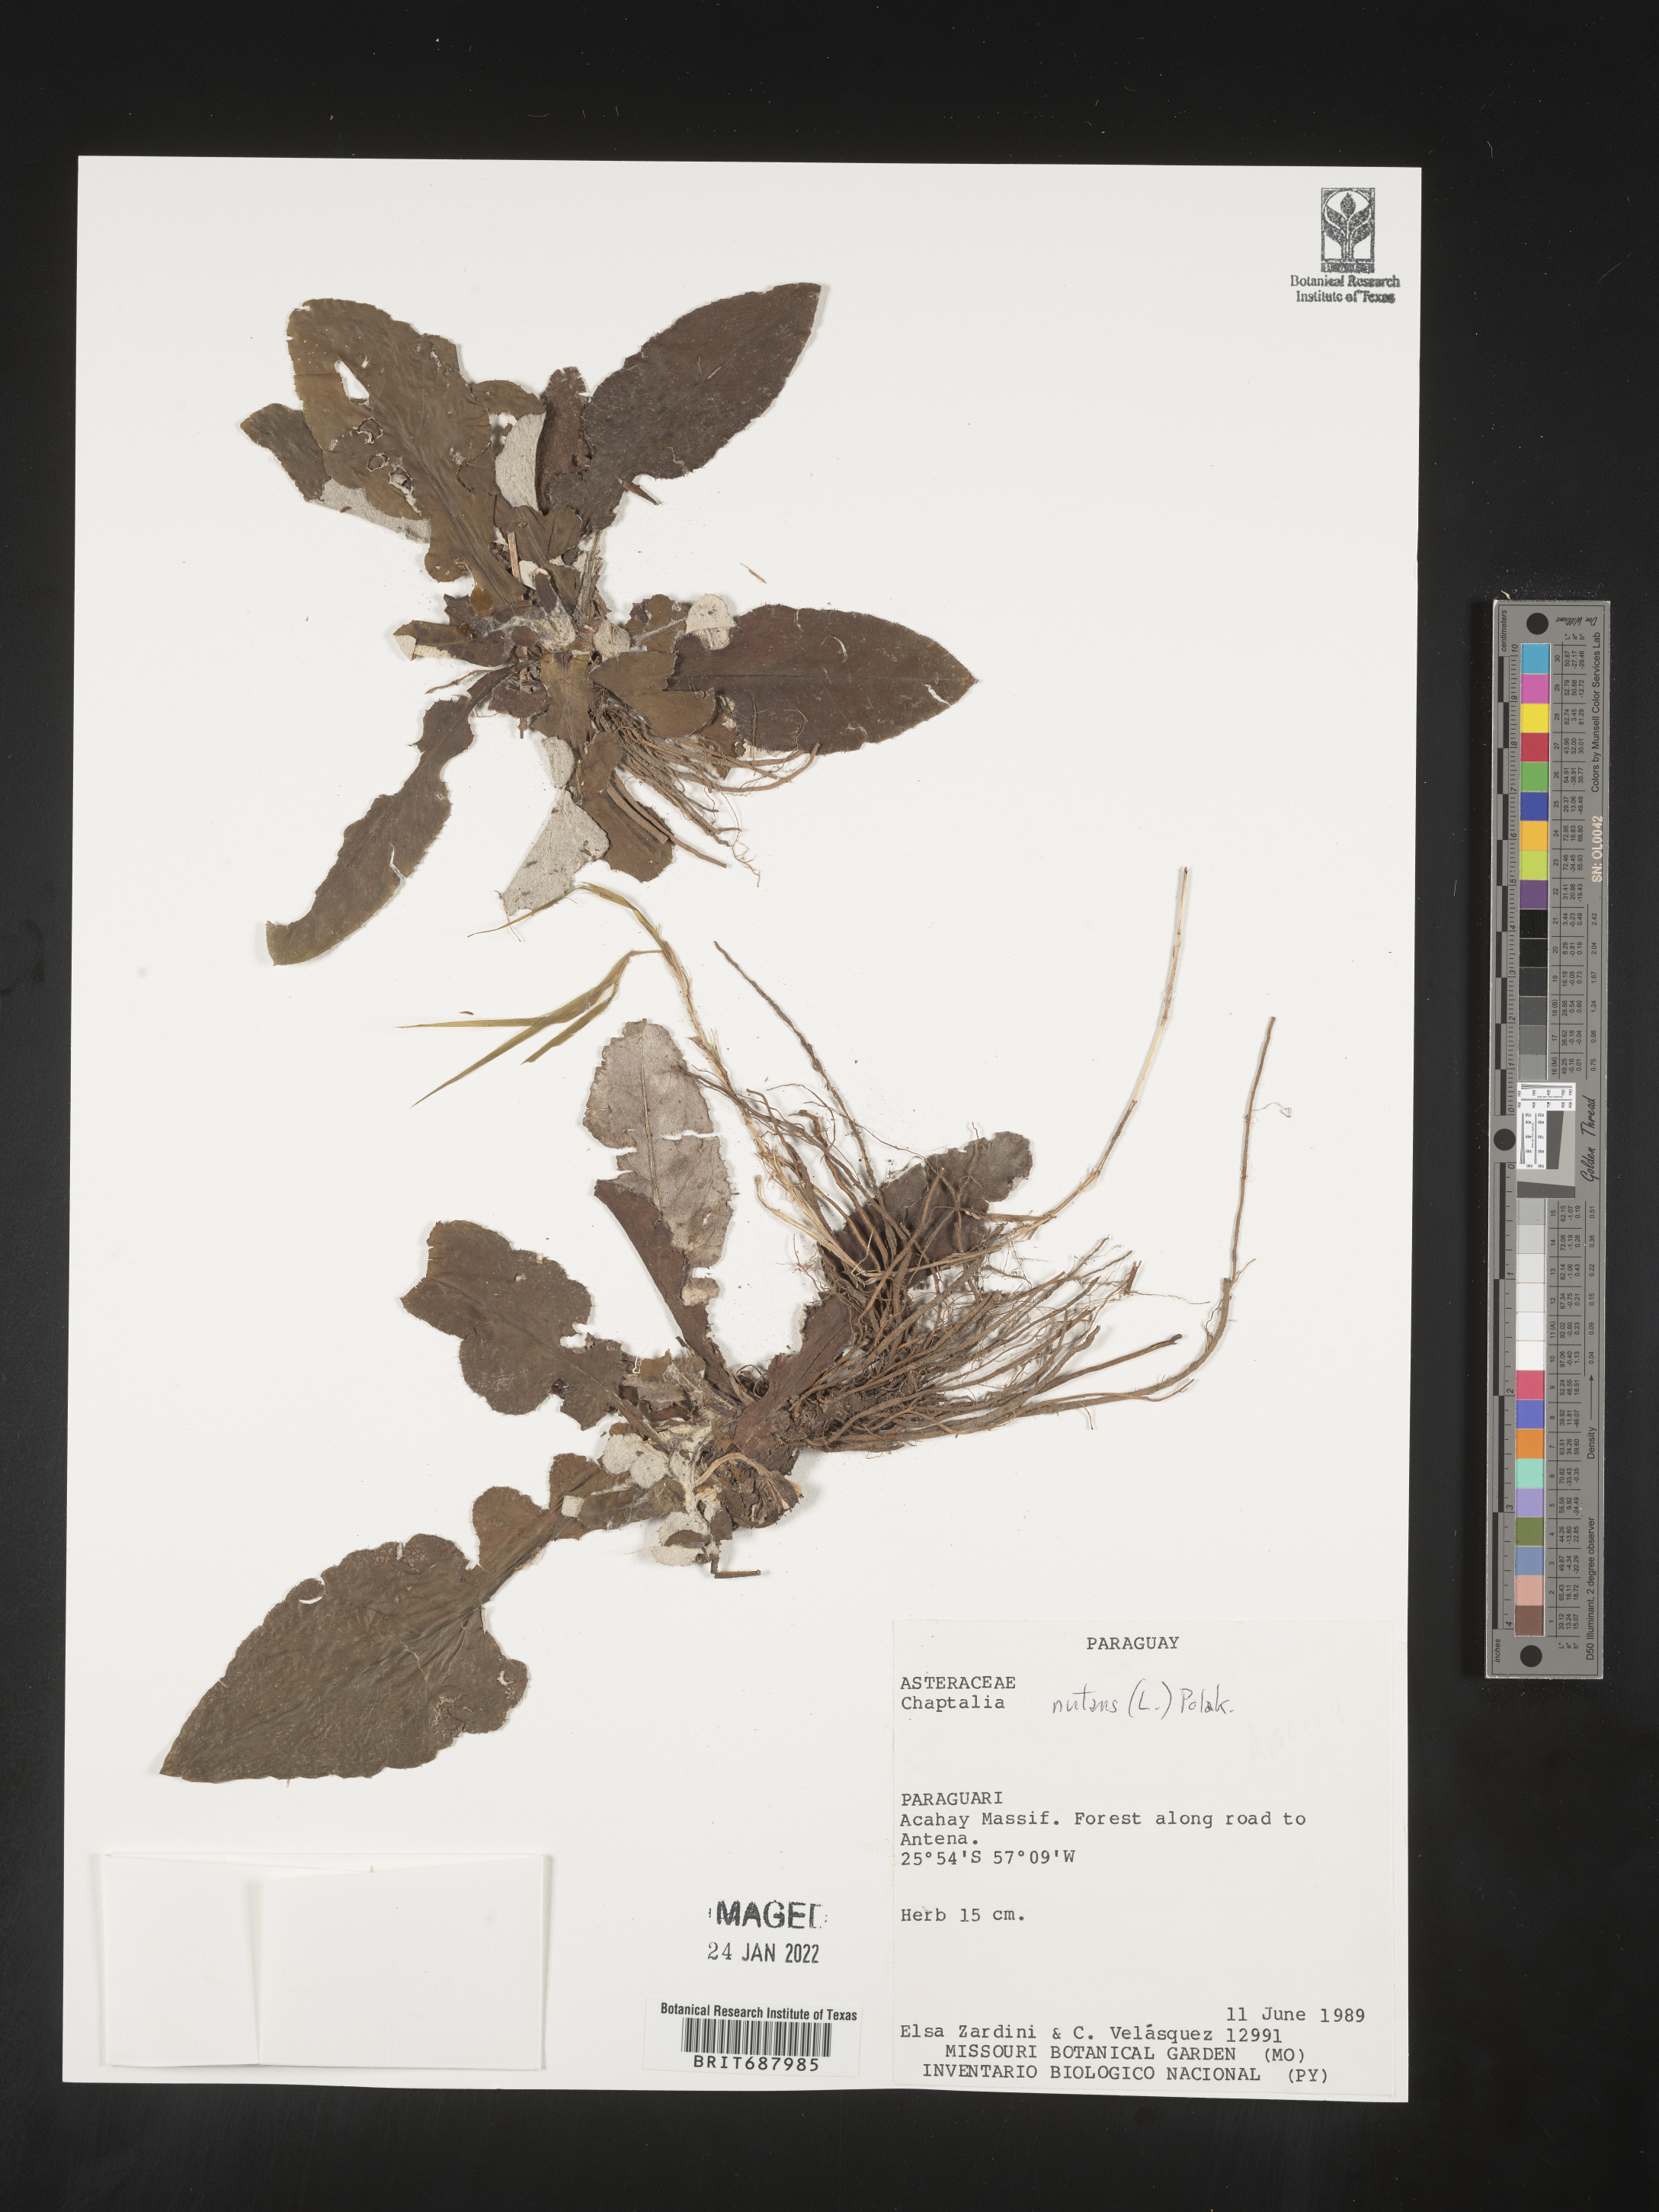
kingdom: Plantae
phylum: Tracheophyta
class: Magnoliopsida
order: Asterales
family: Asteraceae
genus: Chaptalia
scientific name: Chaptalia
